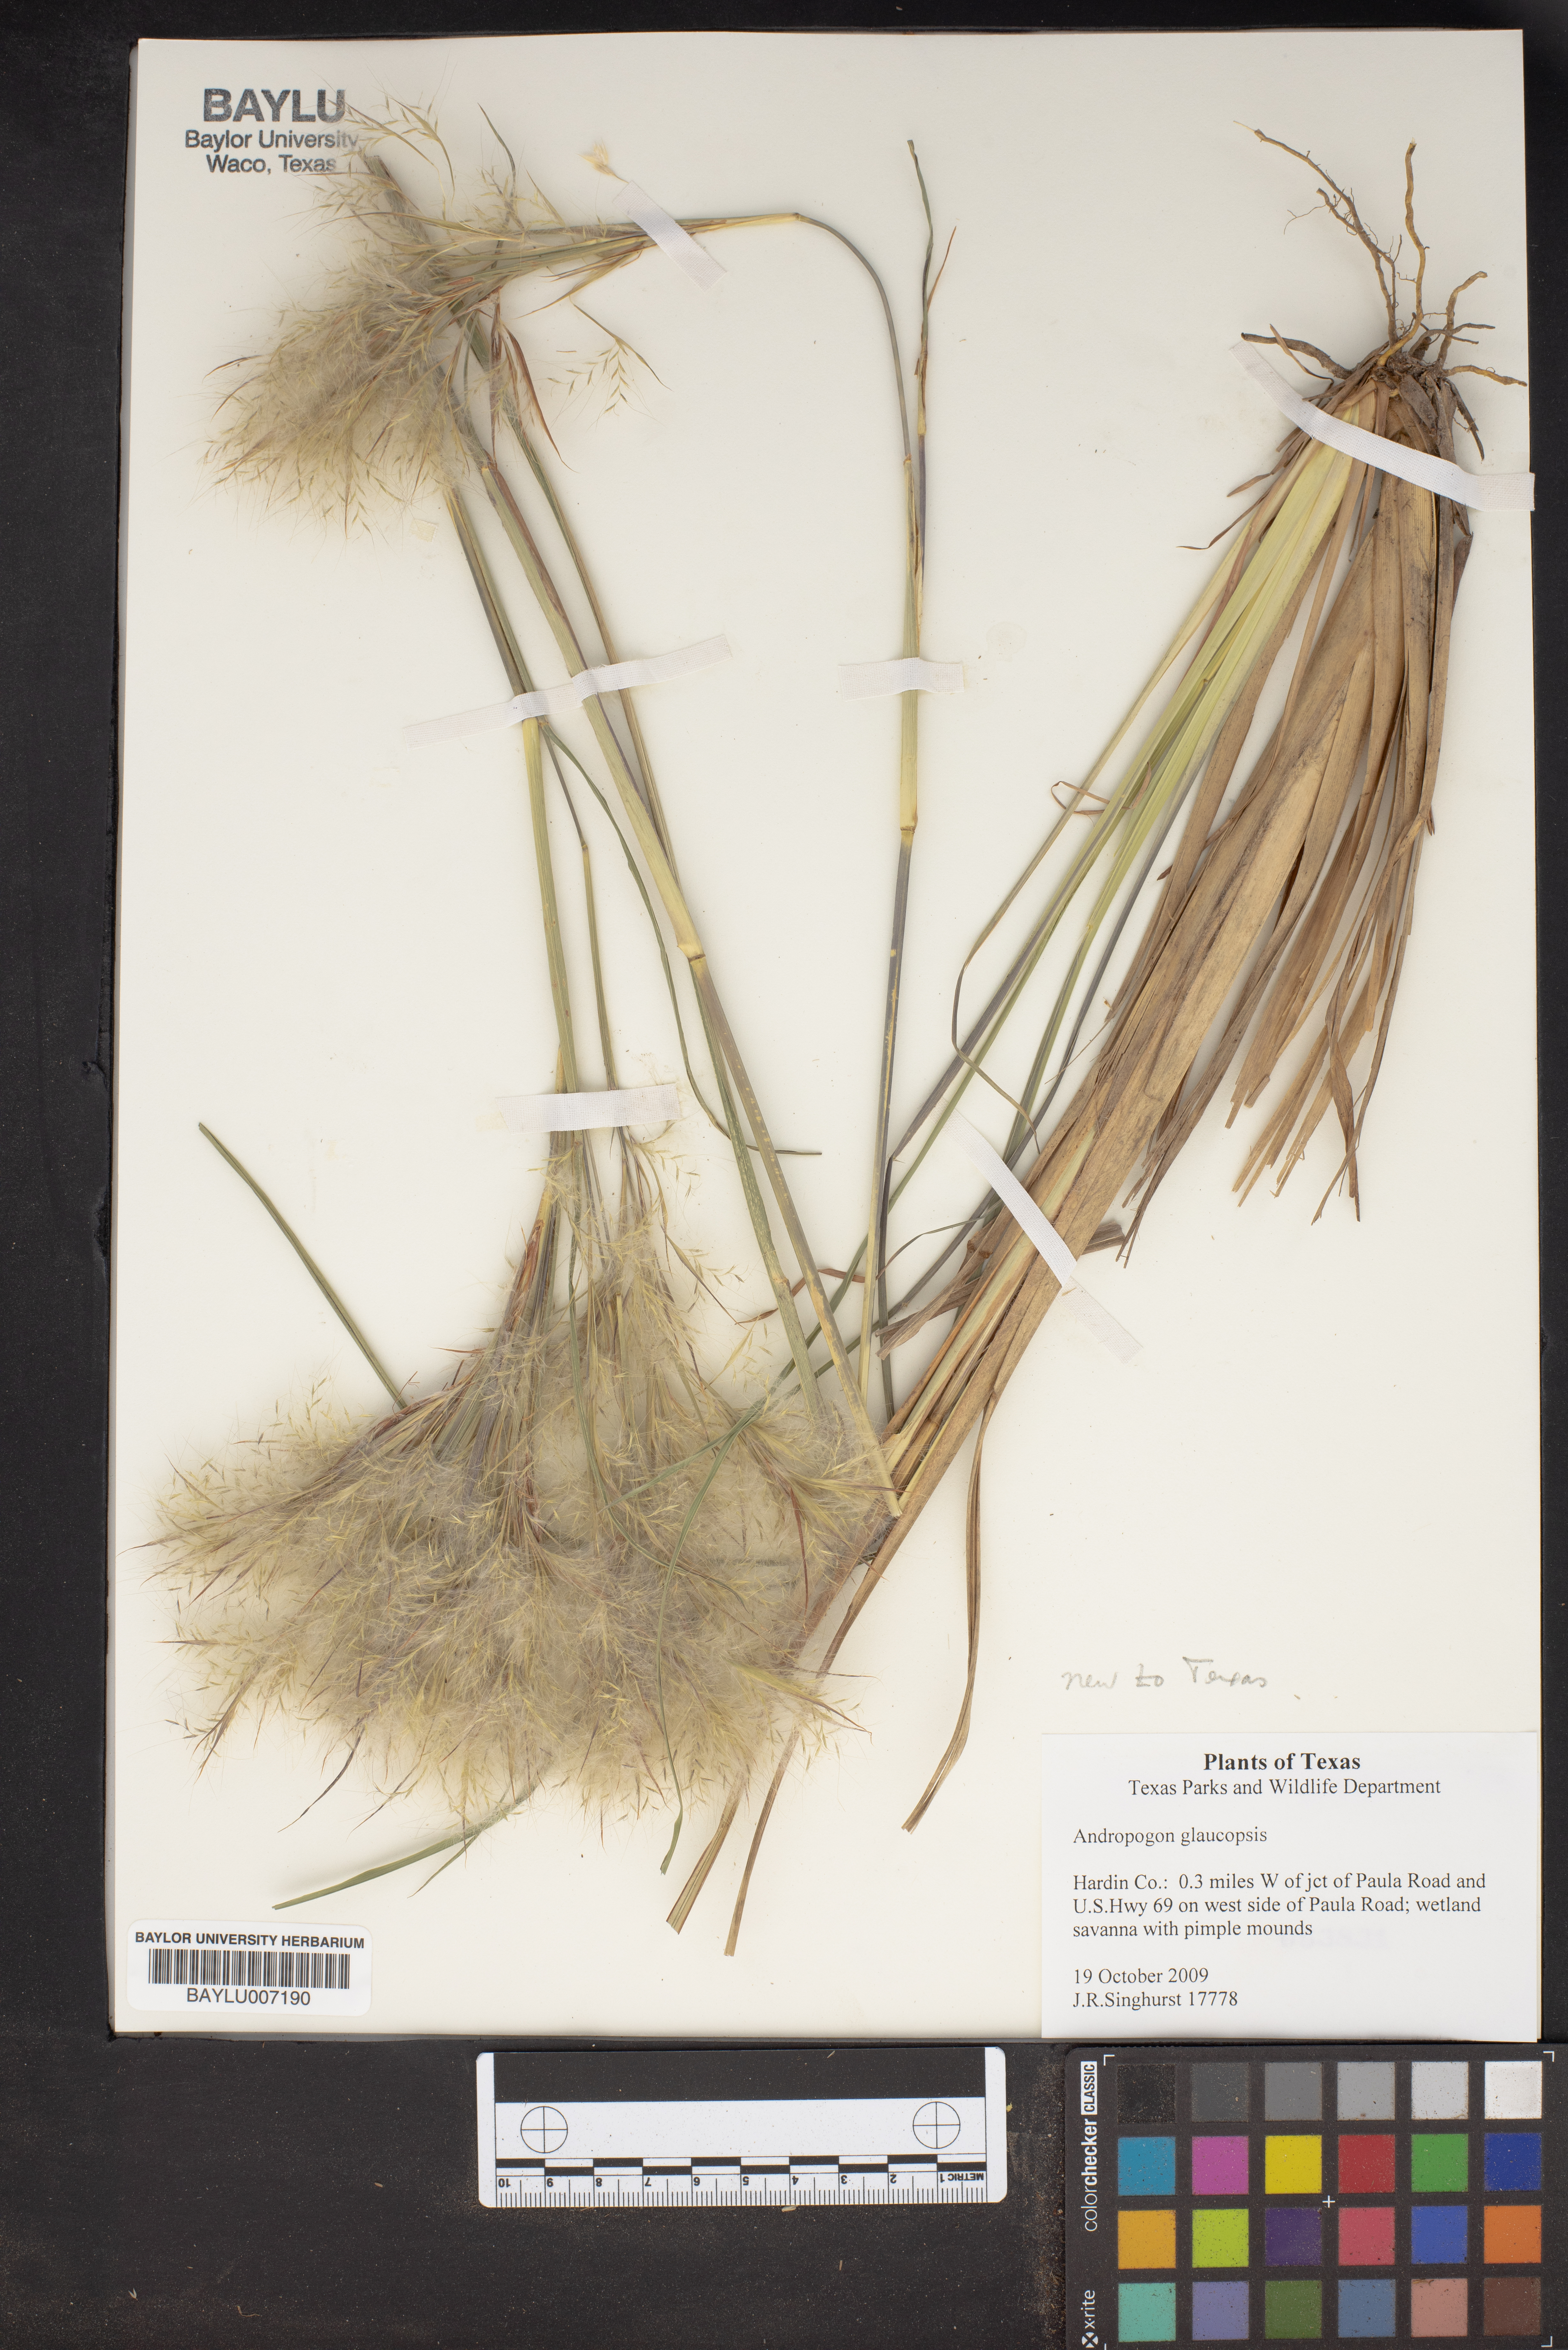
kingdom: Plantae
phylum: Tracheophyta
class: Liliopsida
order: Poales
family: Poaceae
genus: Andropogon
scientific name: Andropogon cretaceus
